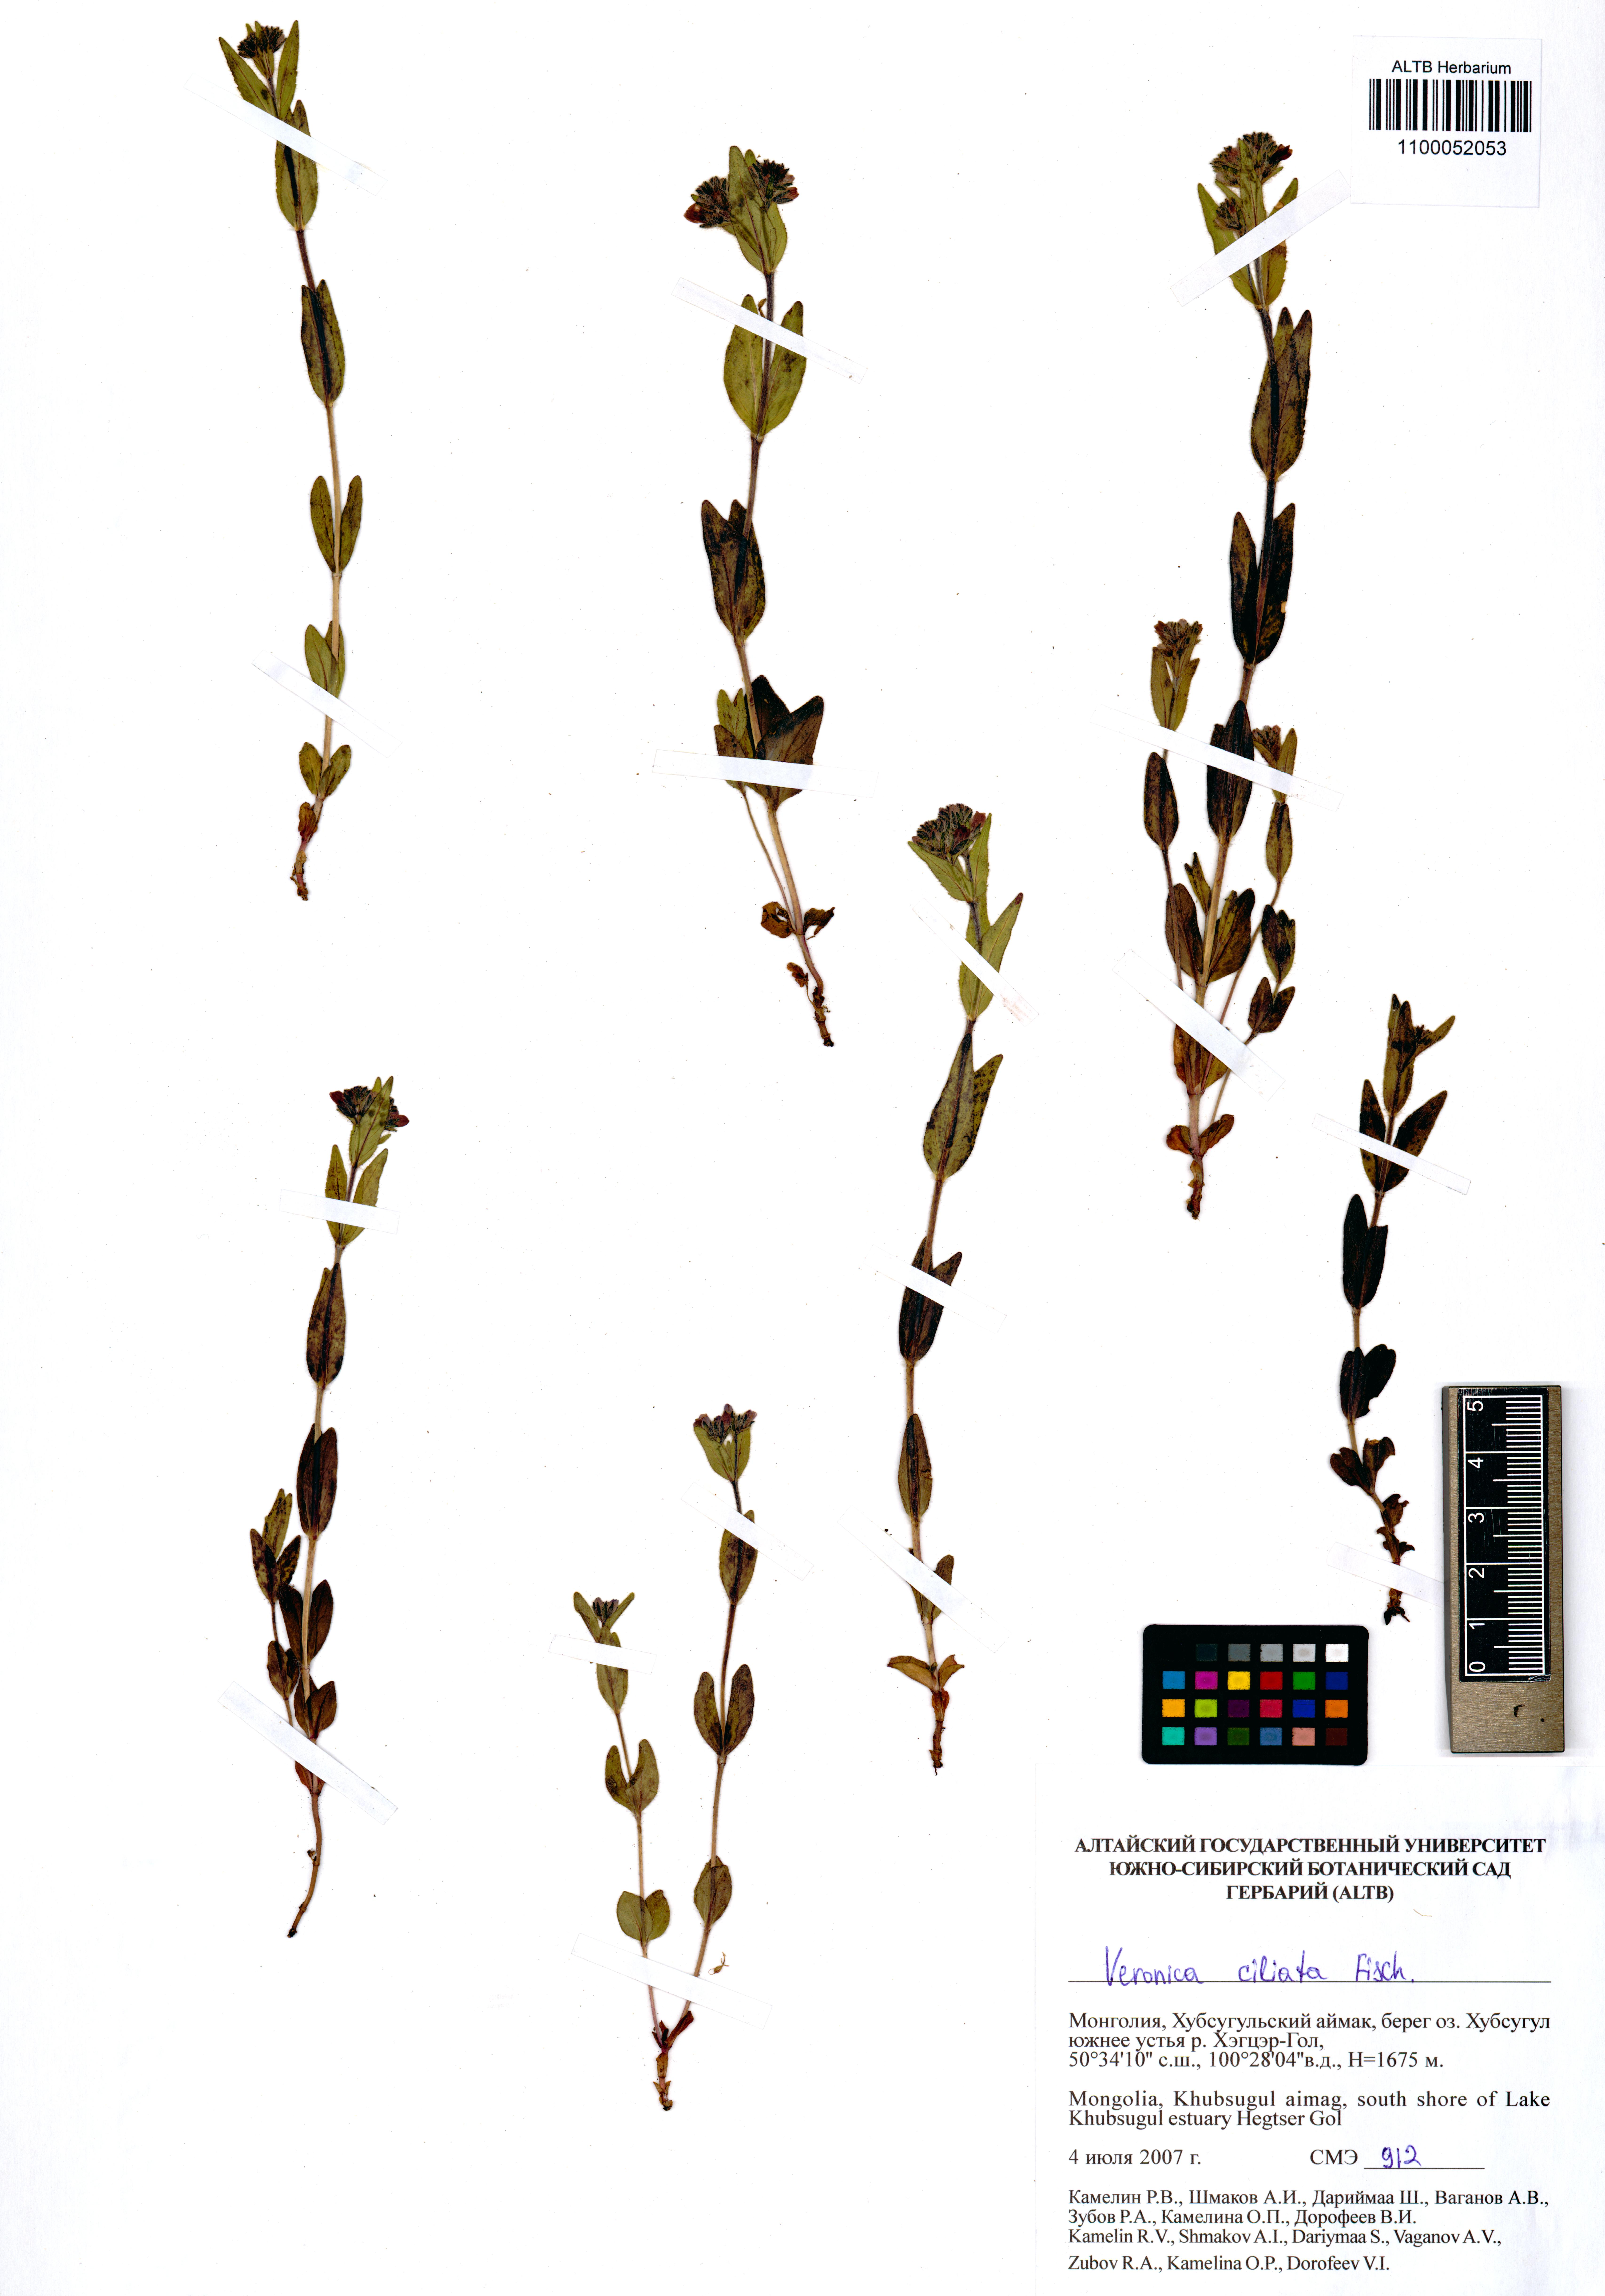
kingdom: Plantae
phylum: Tracheophyta
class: Magnoliopsida
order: Lamiales
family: Plantaginaceae
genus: Veronica
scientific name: Veronica ciliata
